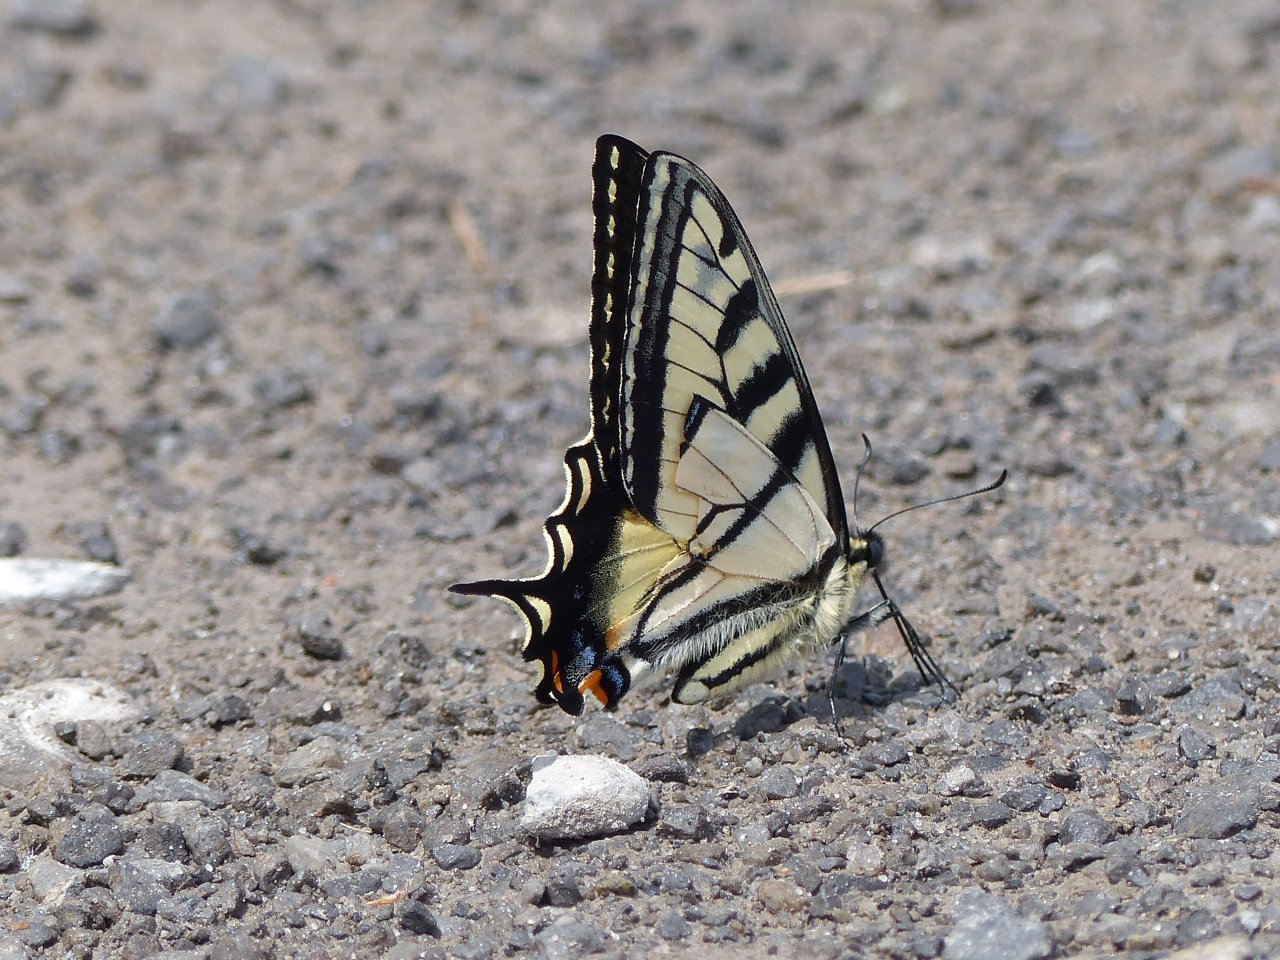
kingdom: Animalia
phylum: Arthropoda
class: Insecta
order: Lepidoptera
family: Papilionidae
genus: Pterourus
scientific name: Pterourus canadensis
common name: Canadian Tiger Swallowtail
